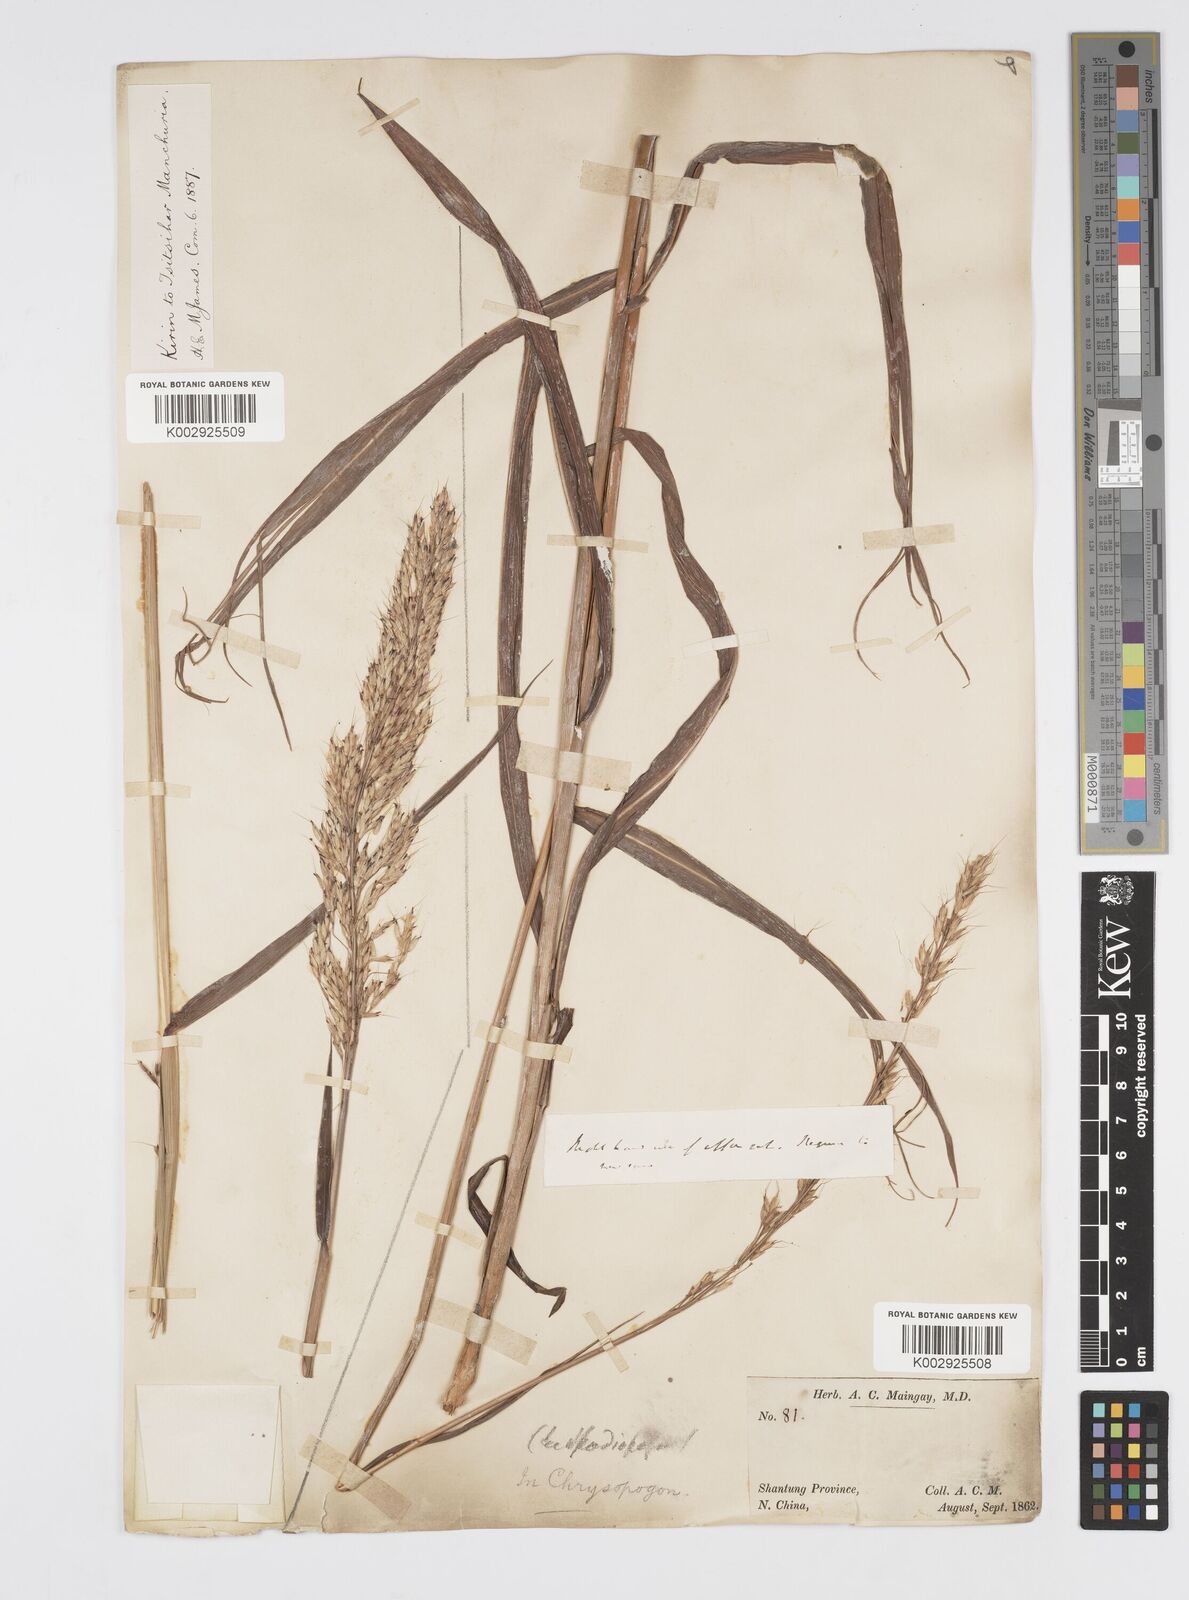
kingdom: Plantae
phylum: Tracheophyta
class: Liliopsida
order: Poales
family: Poaceae
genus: Spodiopogon
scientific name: Spodiopogon sibiricus
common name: Siberian graybeard
